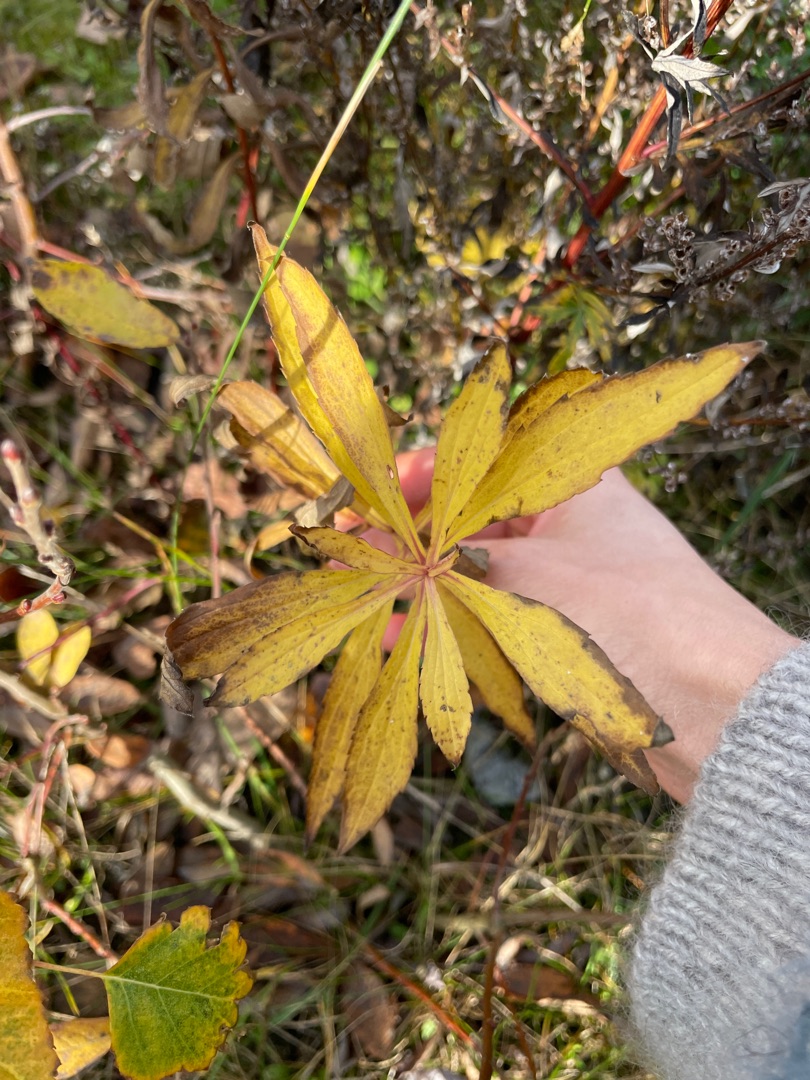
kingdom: Plantae
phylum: Tracheophyta
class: Magnoliopsida
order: Asterales
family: Asteraceae
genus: Solidago
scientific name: Solidago gigantea
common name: Sildig gyldenris
